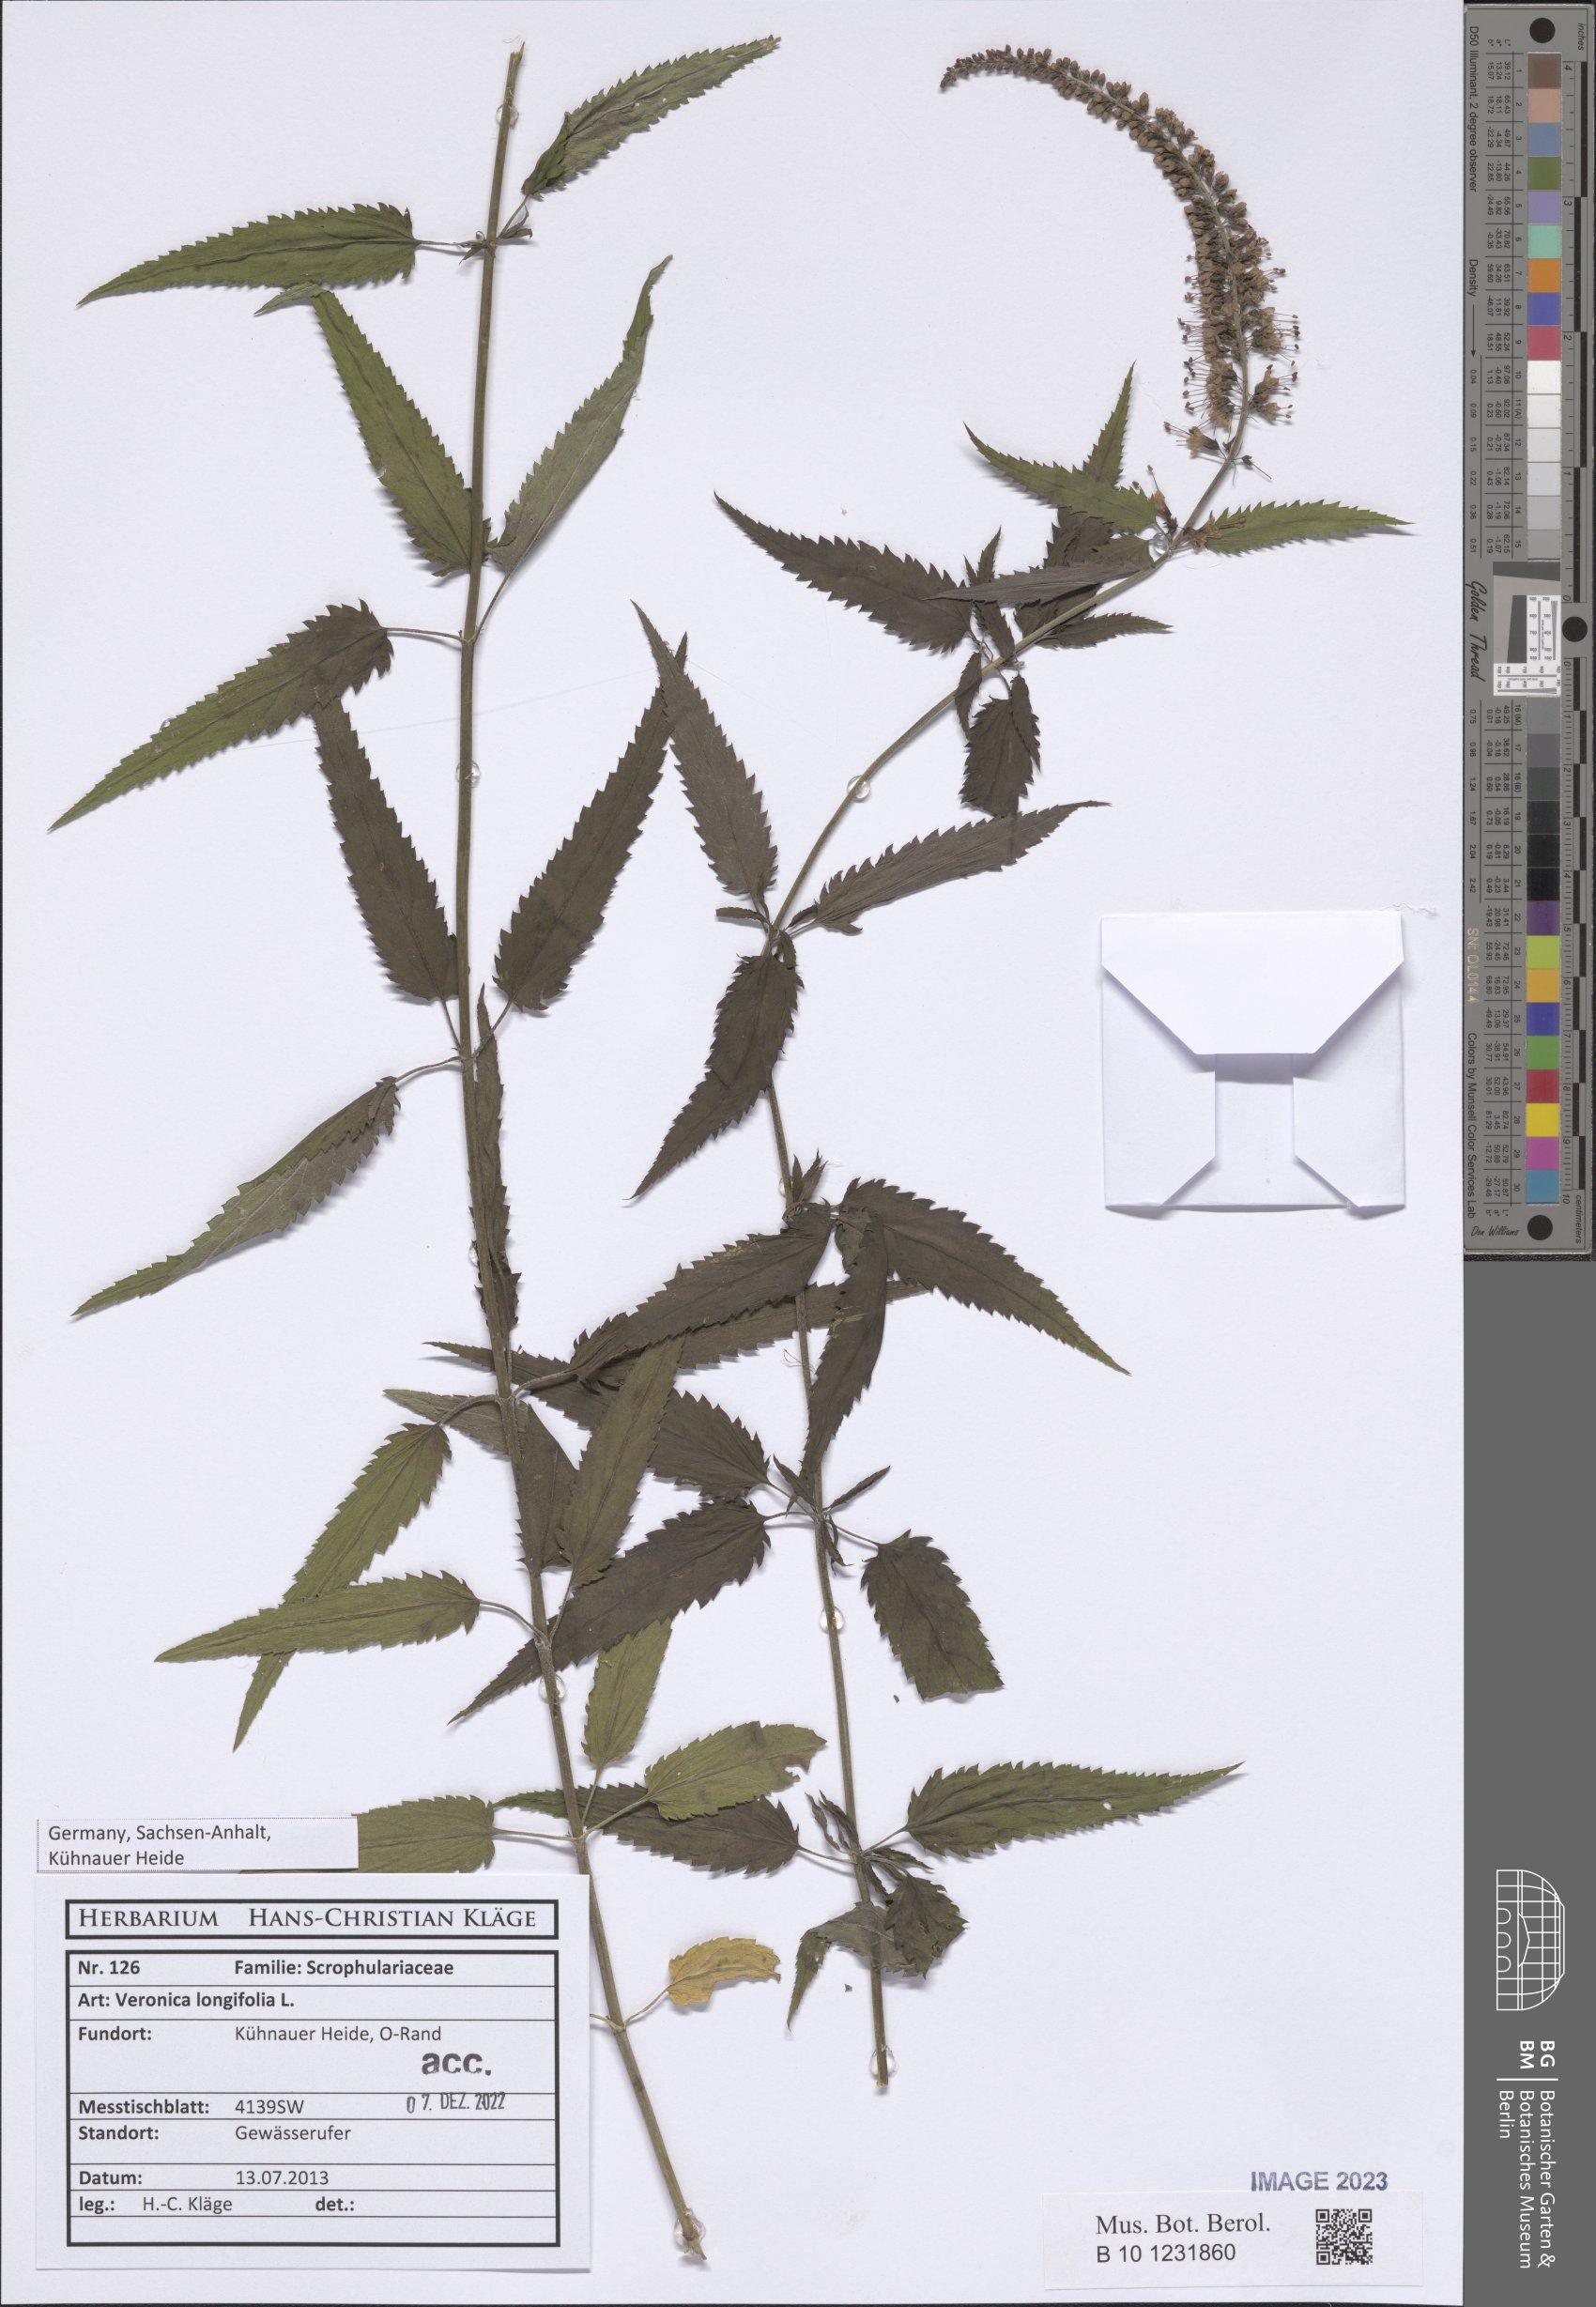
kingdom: Plantae
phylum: Tracheophyta
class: Magnoliopsida
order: Lamiales
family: Plantaginaceae
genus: Veronica
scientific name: Veronica longifolia
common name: Garden speedwell
